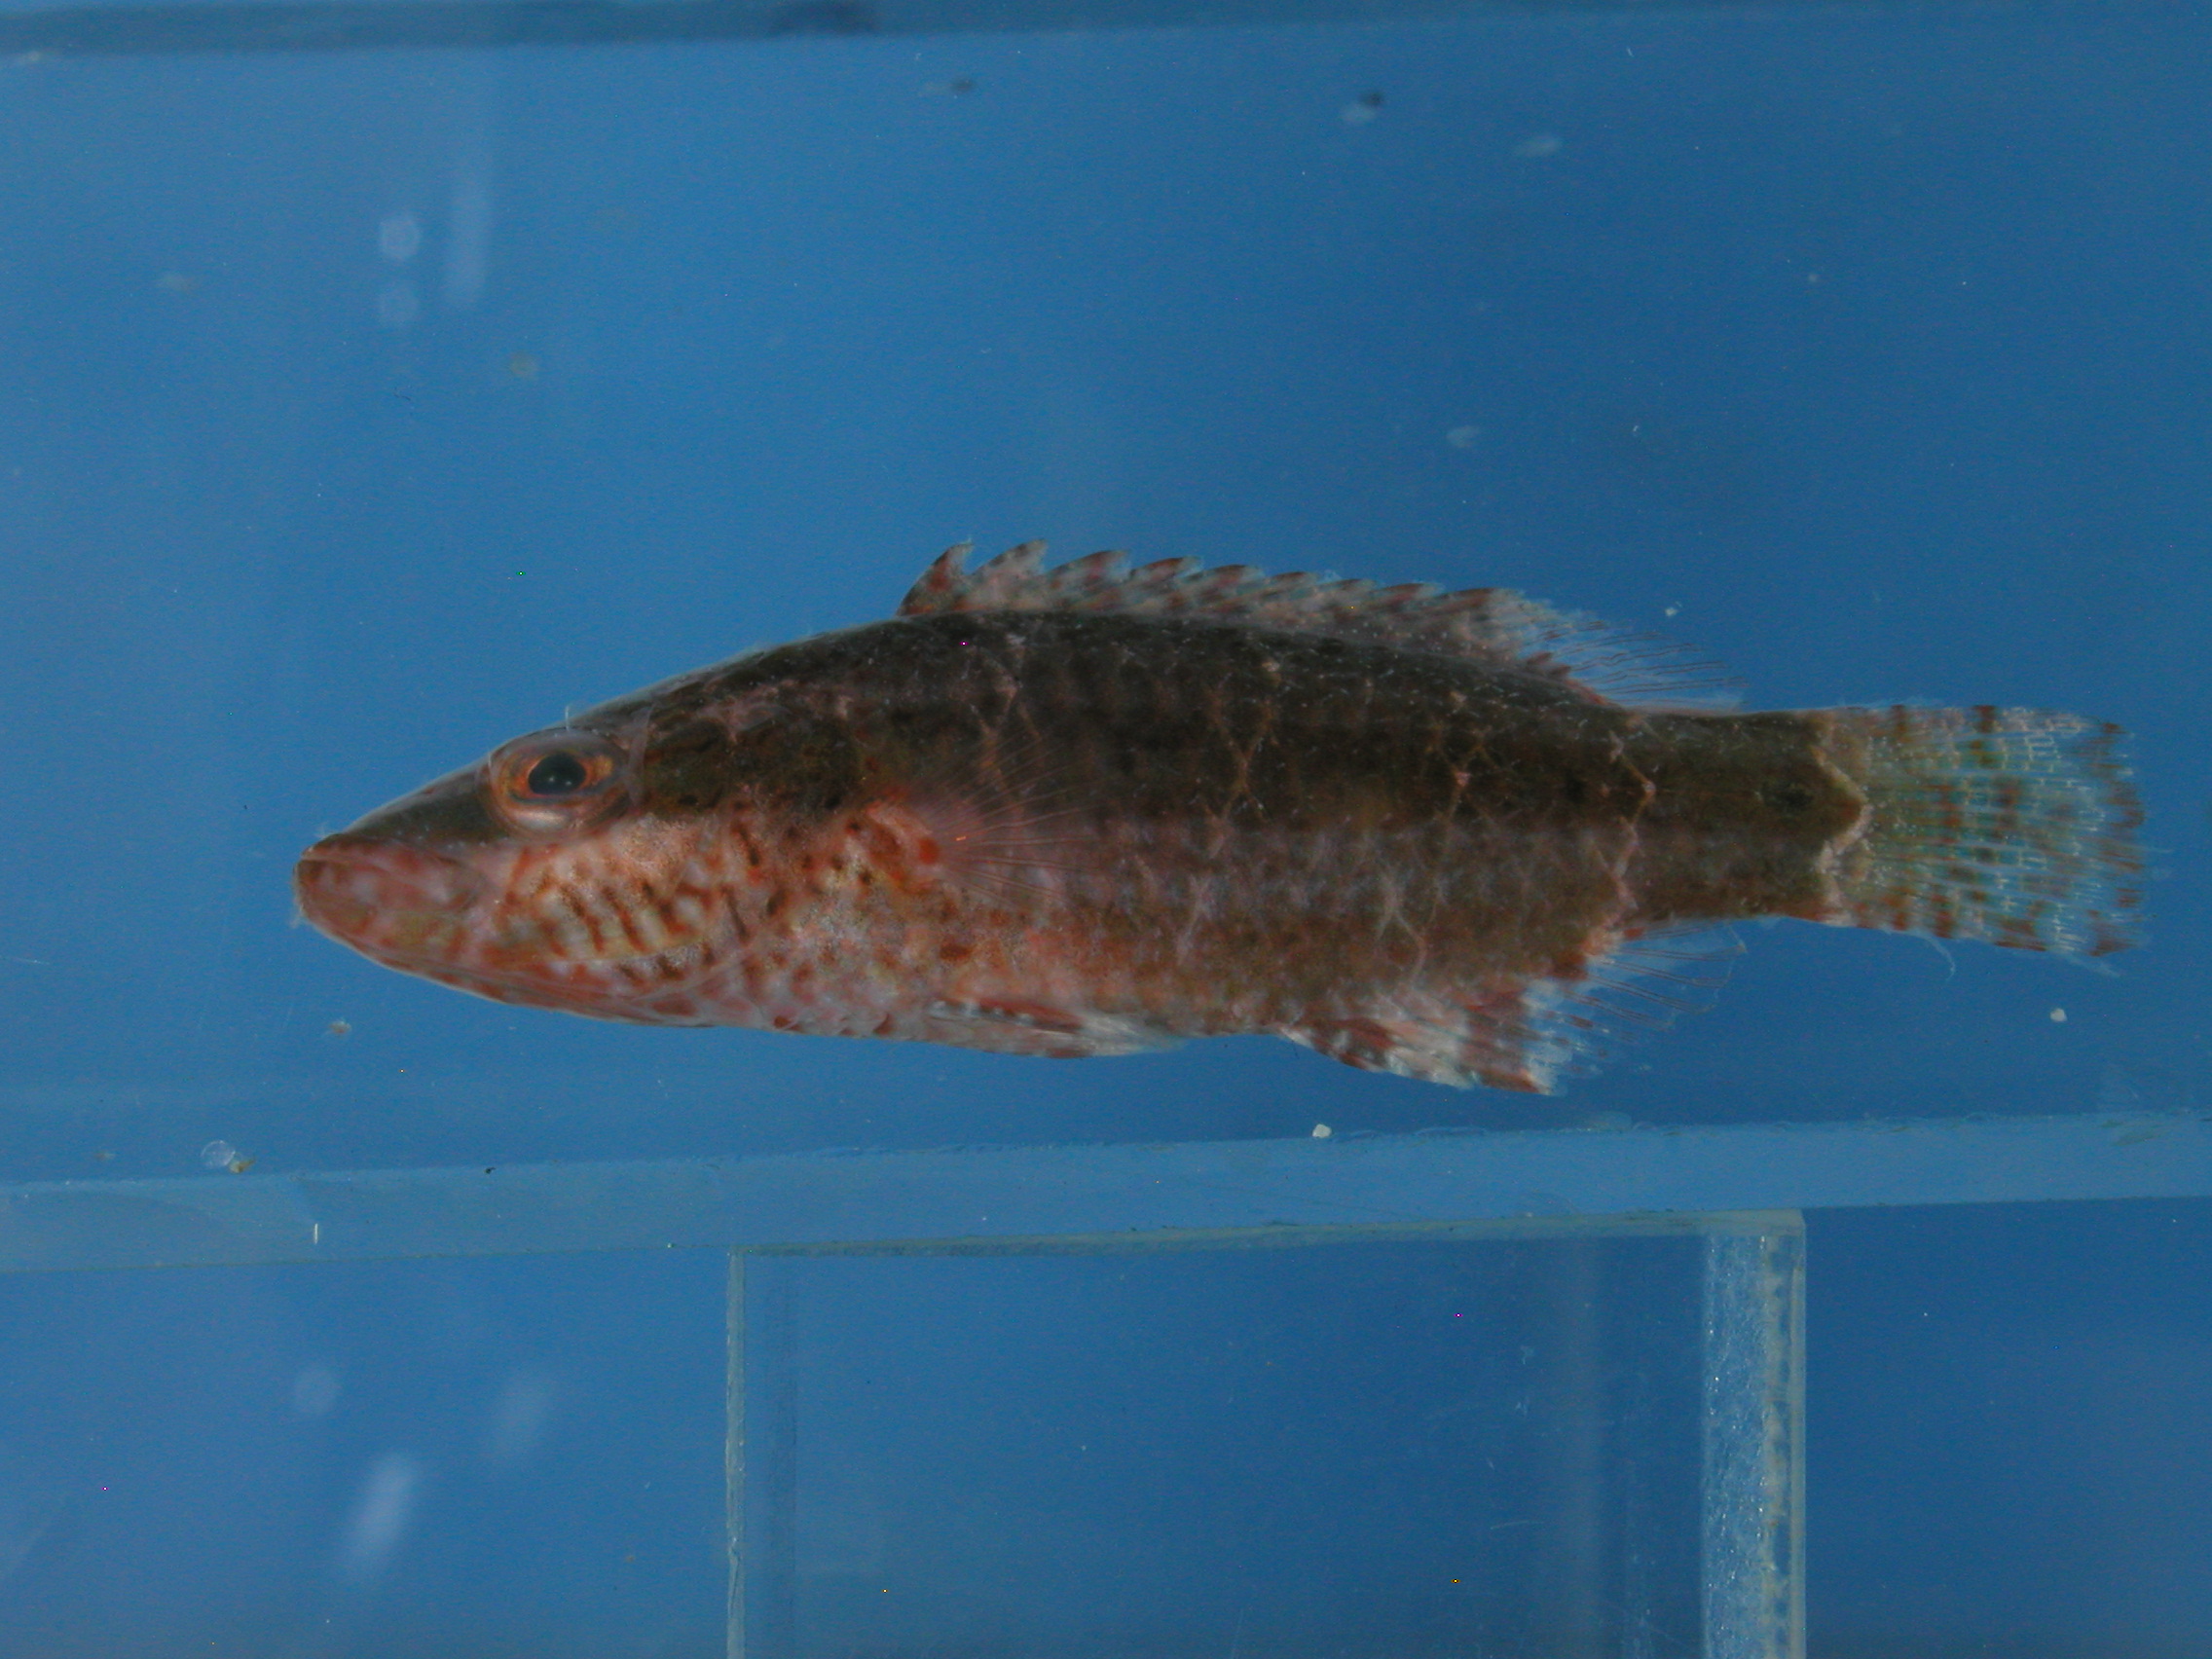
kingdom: Animalia
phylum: Chordata
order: Perciformes
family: Labridae
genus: Oxycheilinus
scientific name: Oxycheilinus digramma
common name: Bandcheek wrasse
